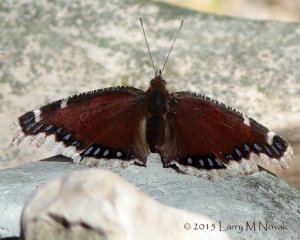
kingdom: Animalia
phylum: Arthropoda
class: Insecta
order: Lepidoptera
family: Nymphalidae
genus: Nymphalis
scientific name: Nymphalis antiopa
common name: Mourning Cloak
